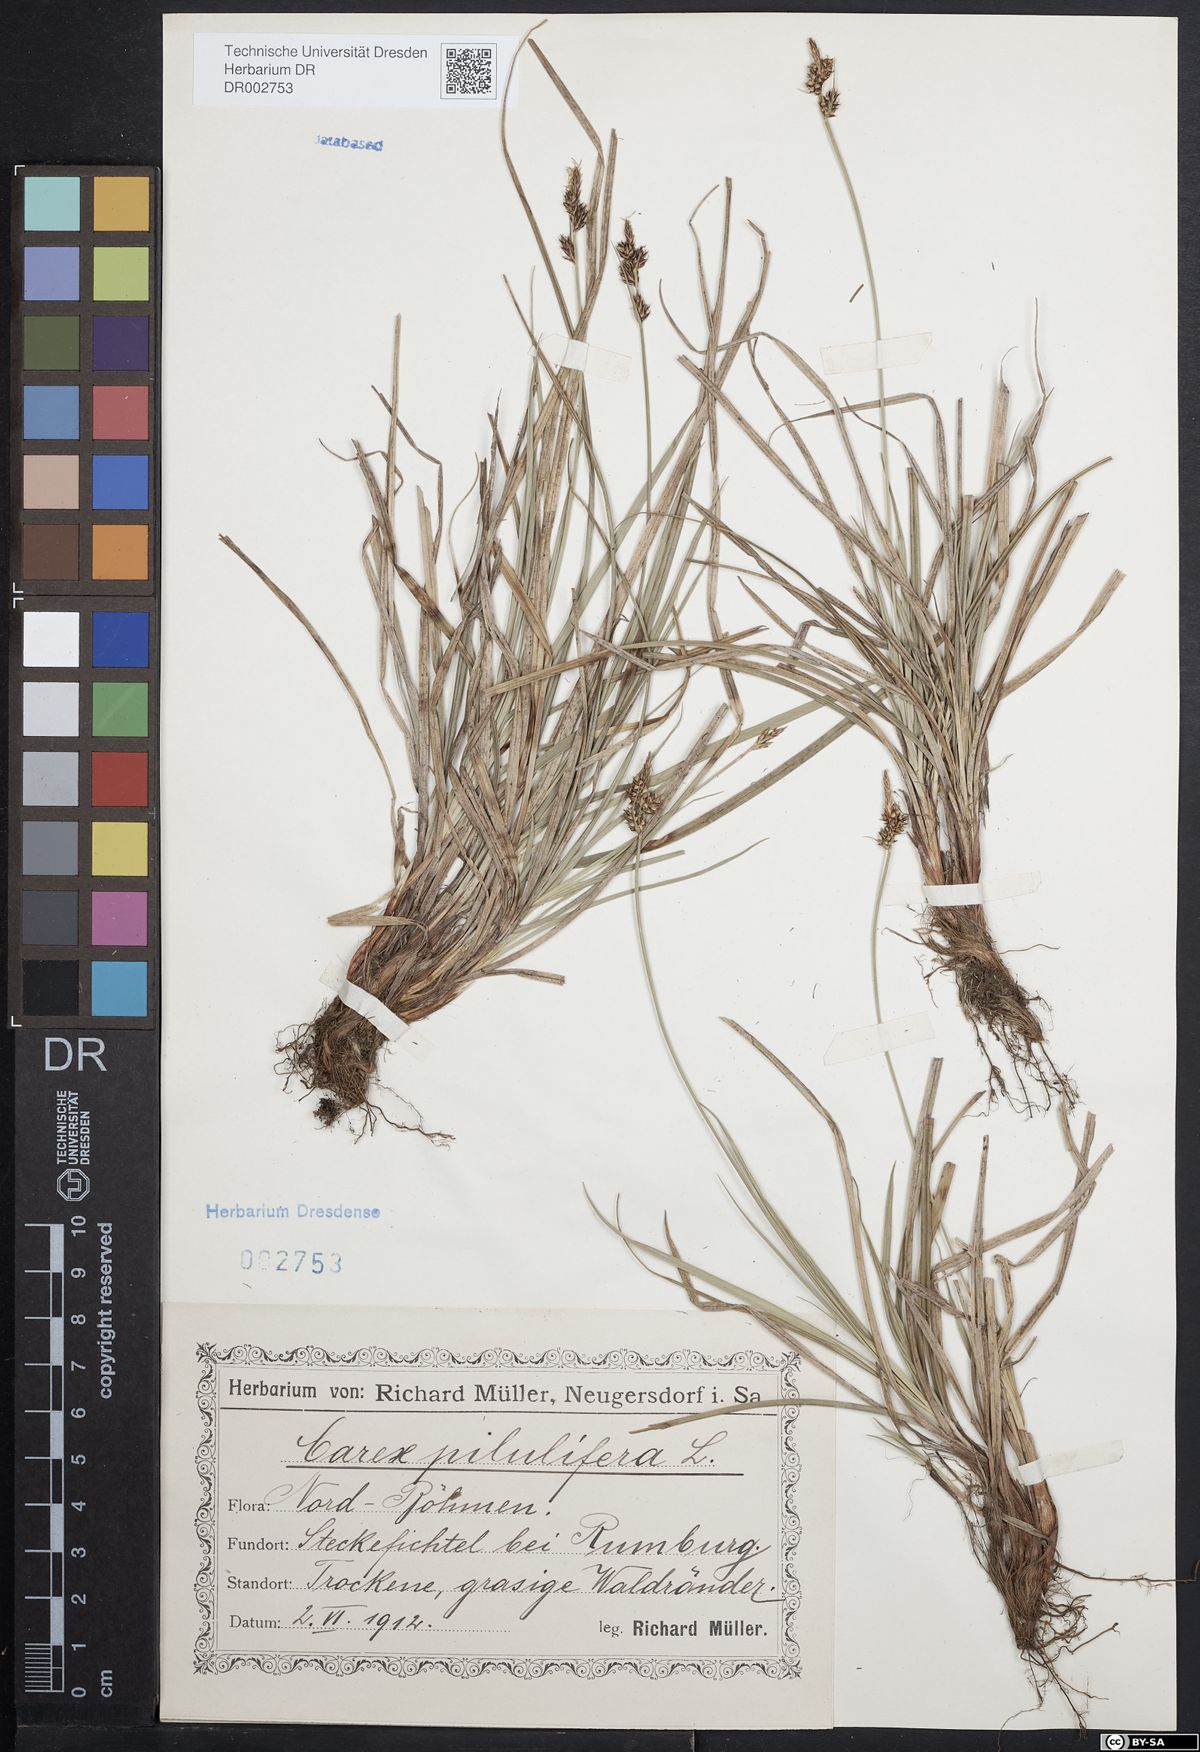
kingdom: Plantae
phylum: Tracheophyta
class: Liliopsida
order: Poales
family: Cyperaceae
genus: Carex
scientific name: Carex caryophyllea
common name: Spring sedge
